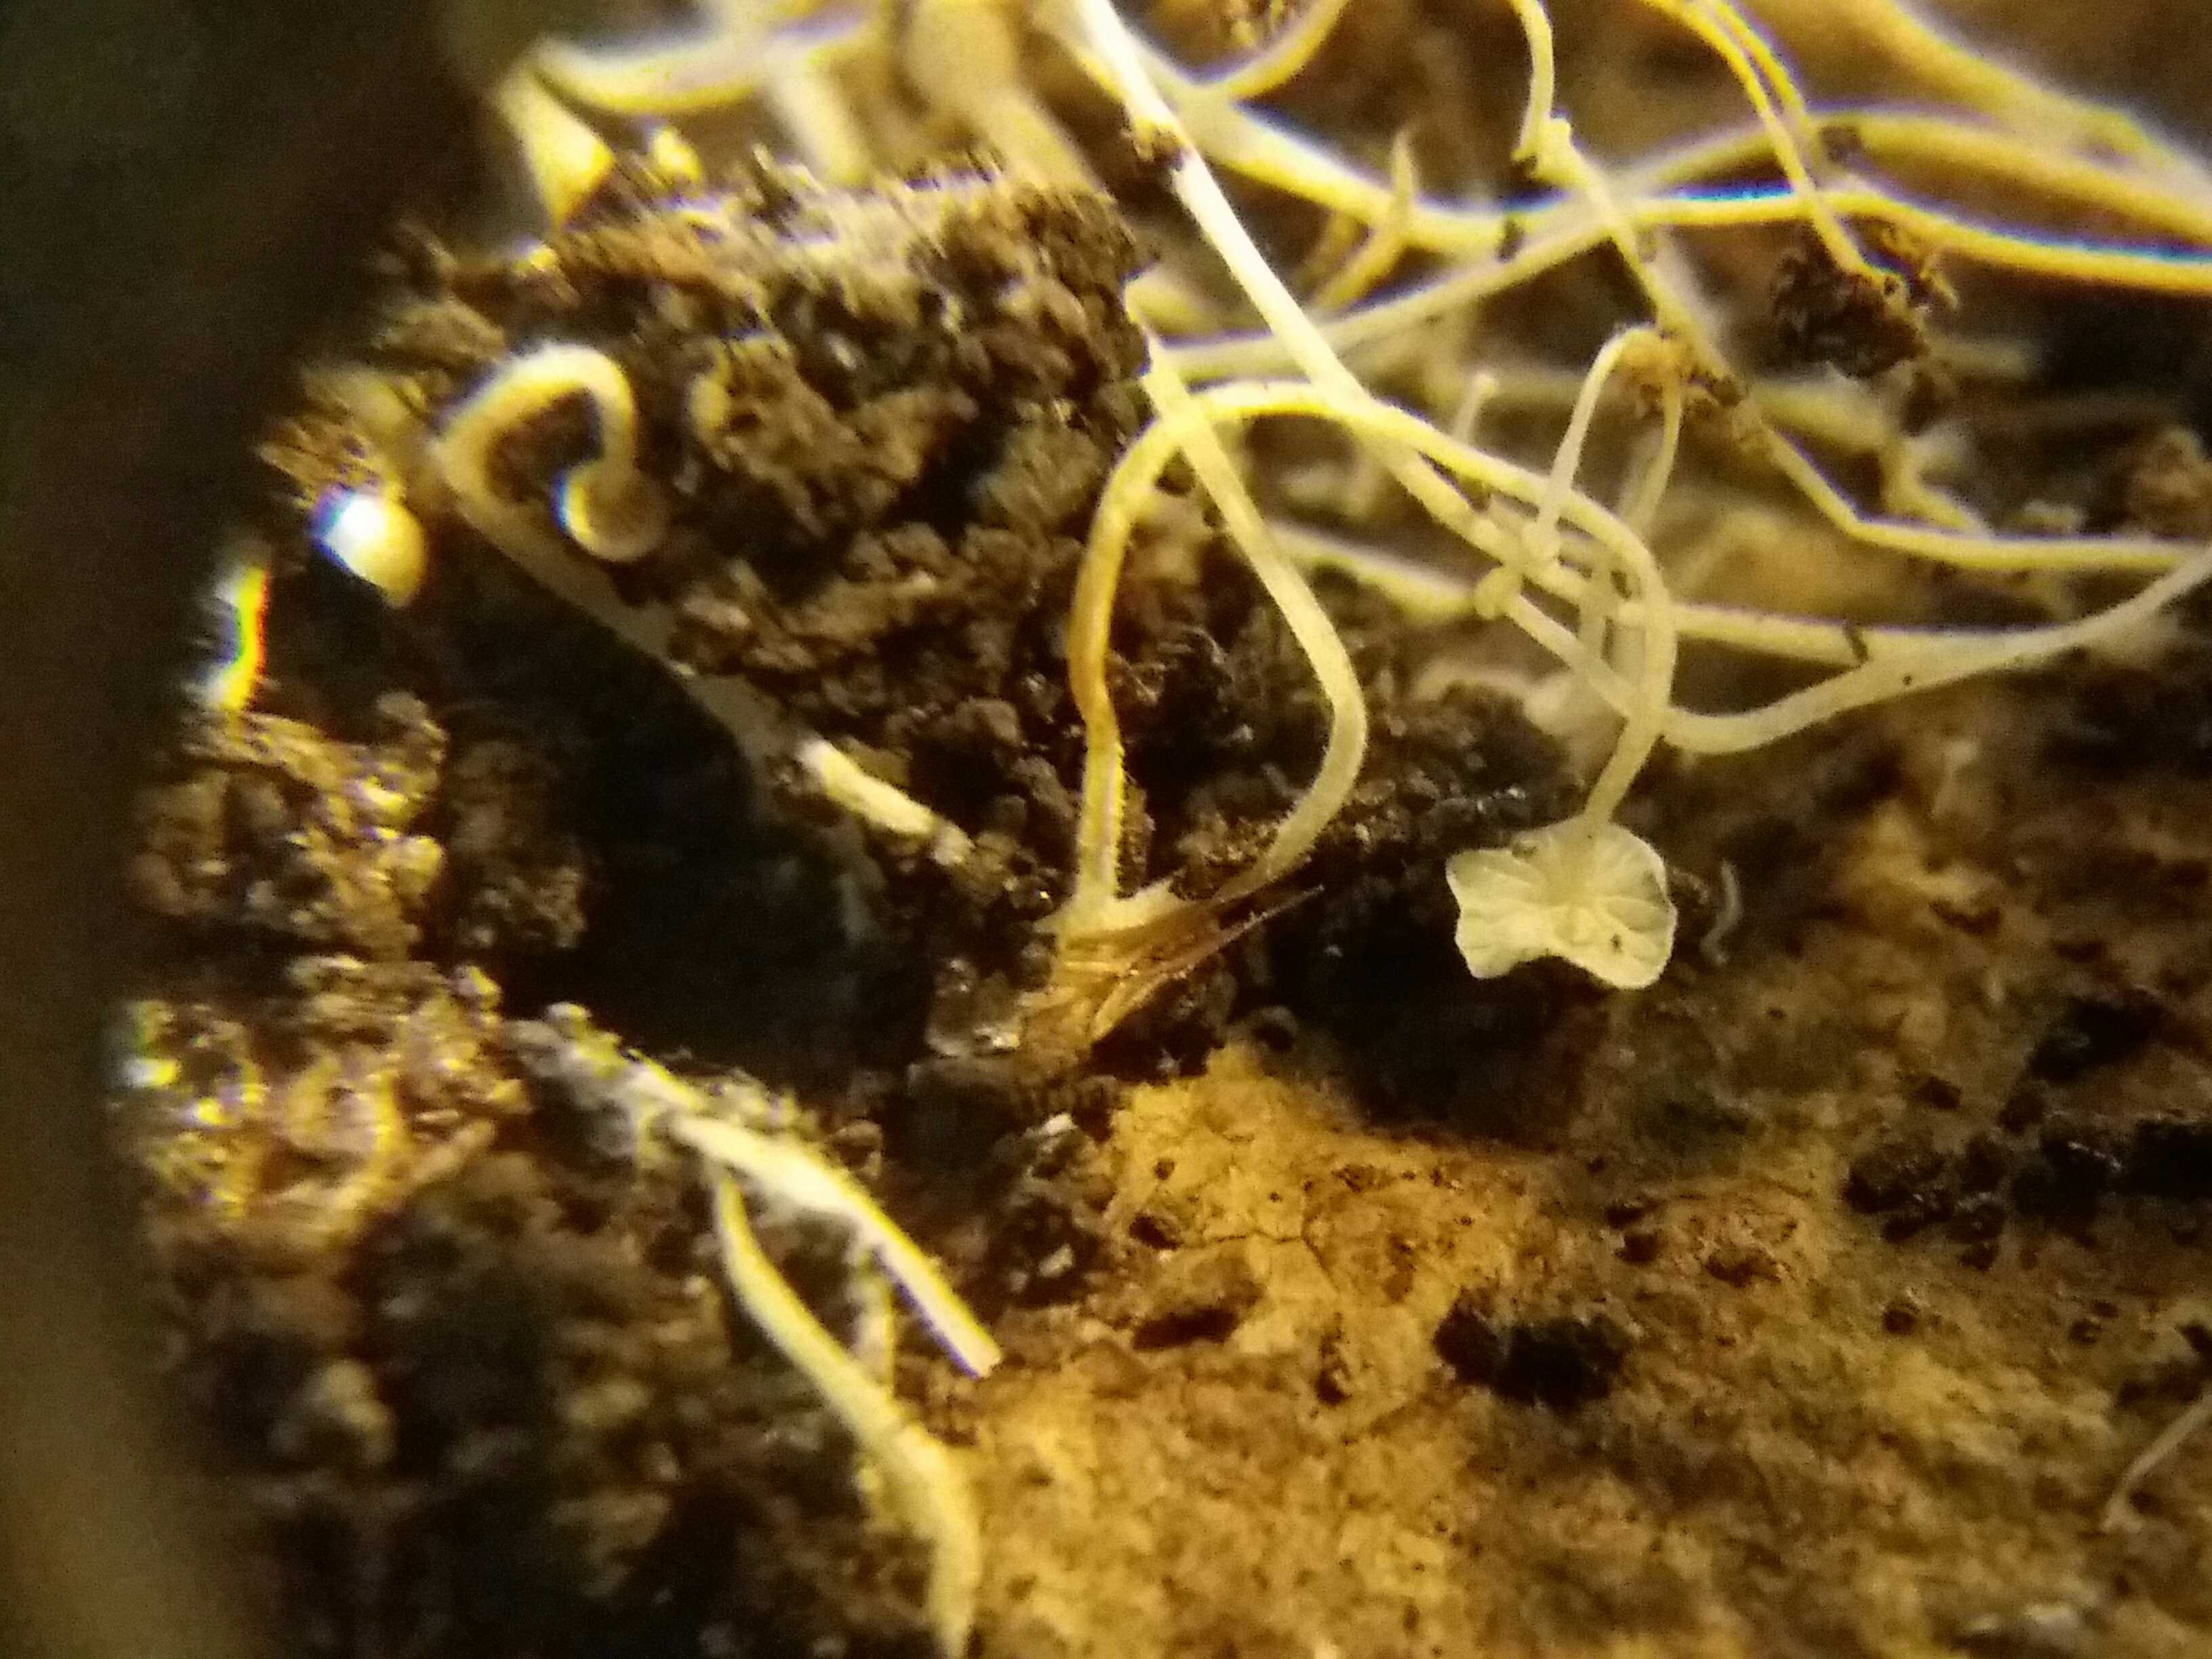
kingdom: Fungi
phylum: Basidiomycota
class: Agaricomycetes
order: Agaricales
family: Mycenaceae
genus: Hemimycena
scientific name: Hemimycena tortuosa
